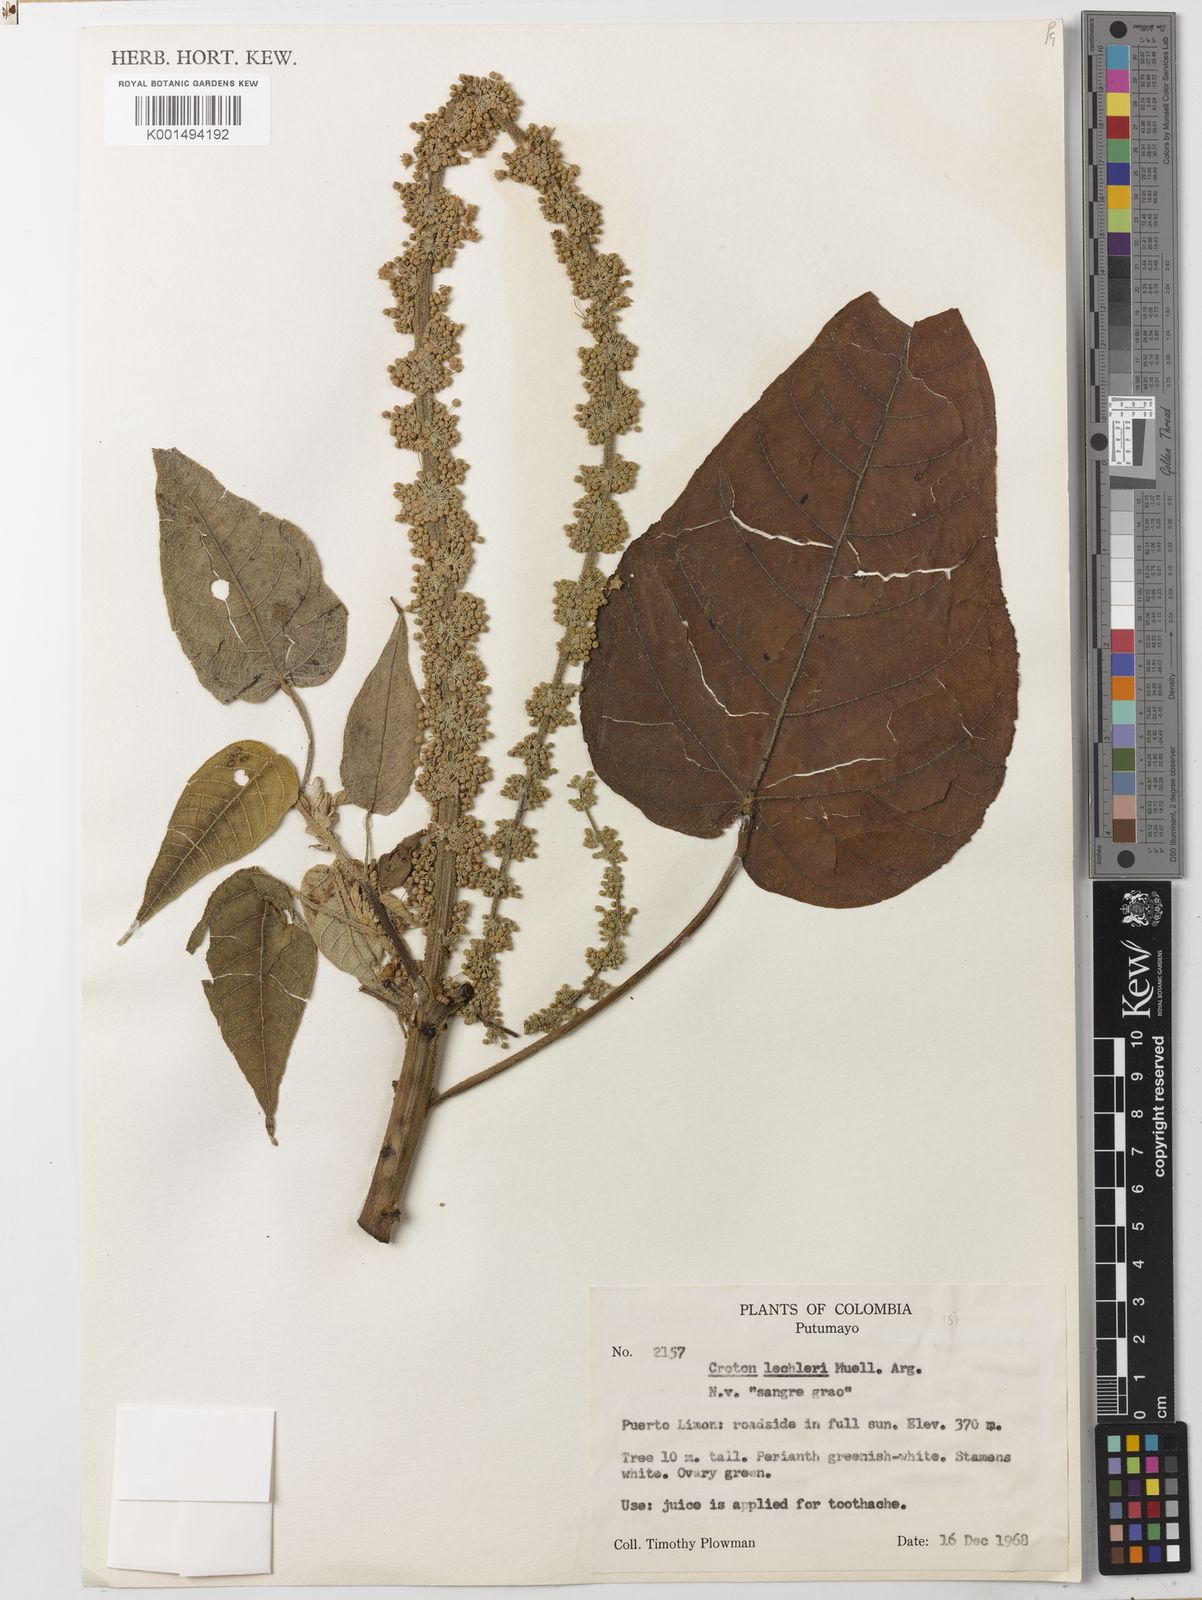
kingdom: Plantae
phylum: Tracheophyta
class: Magnoliopsida
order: Malpighiales
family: Euphorbiaceae
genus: Croton
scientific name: Croton lechleri
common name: Dragon's blood
